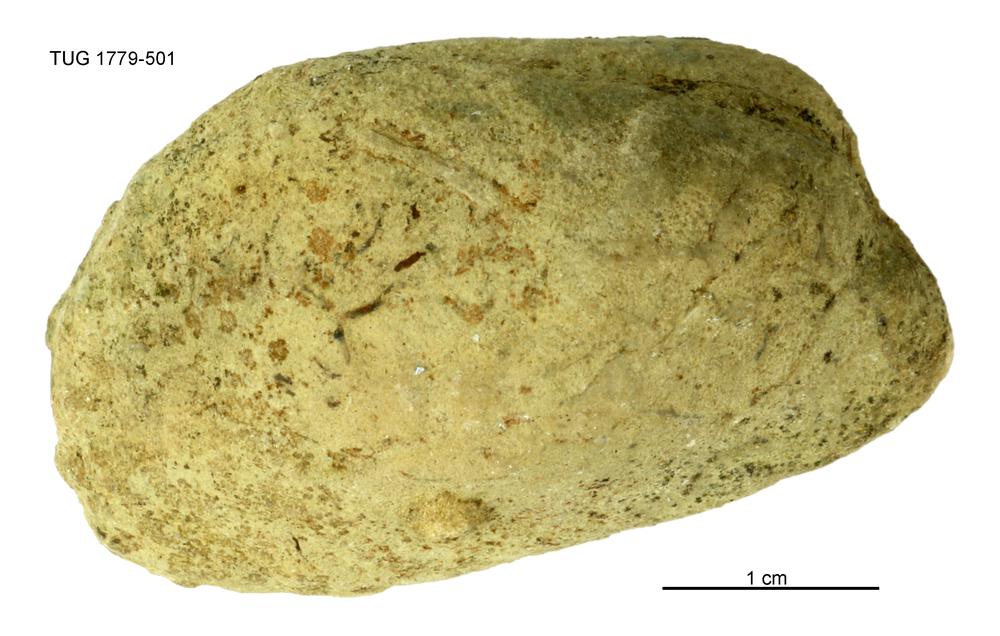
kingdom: Animalia
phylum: Mollusca
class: Bivalvia
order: Modiomorphida
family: Modiomorphidae
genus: Modiolopsis
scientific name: Modiolopsis
